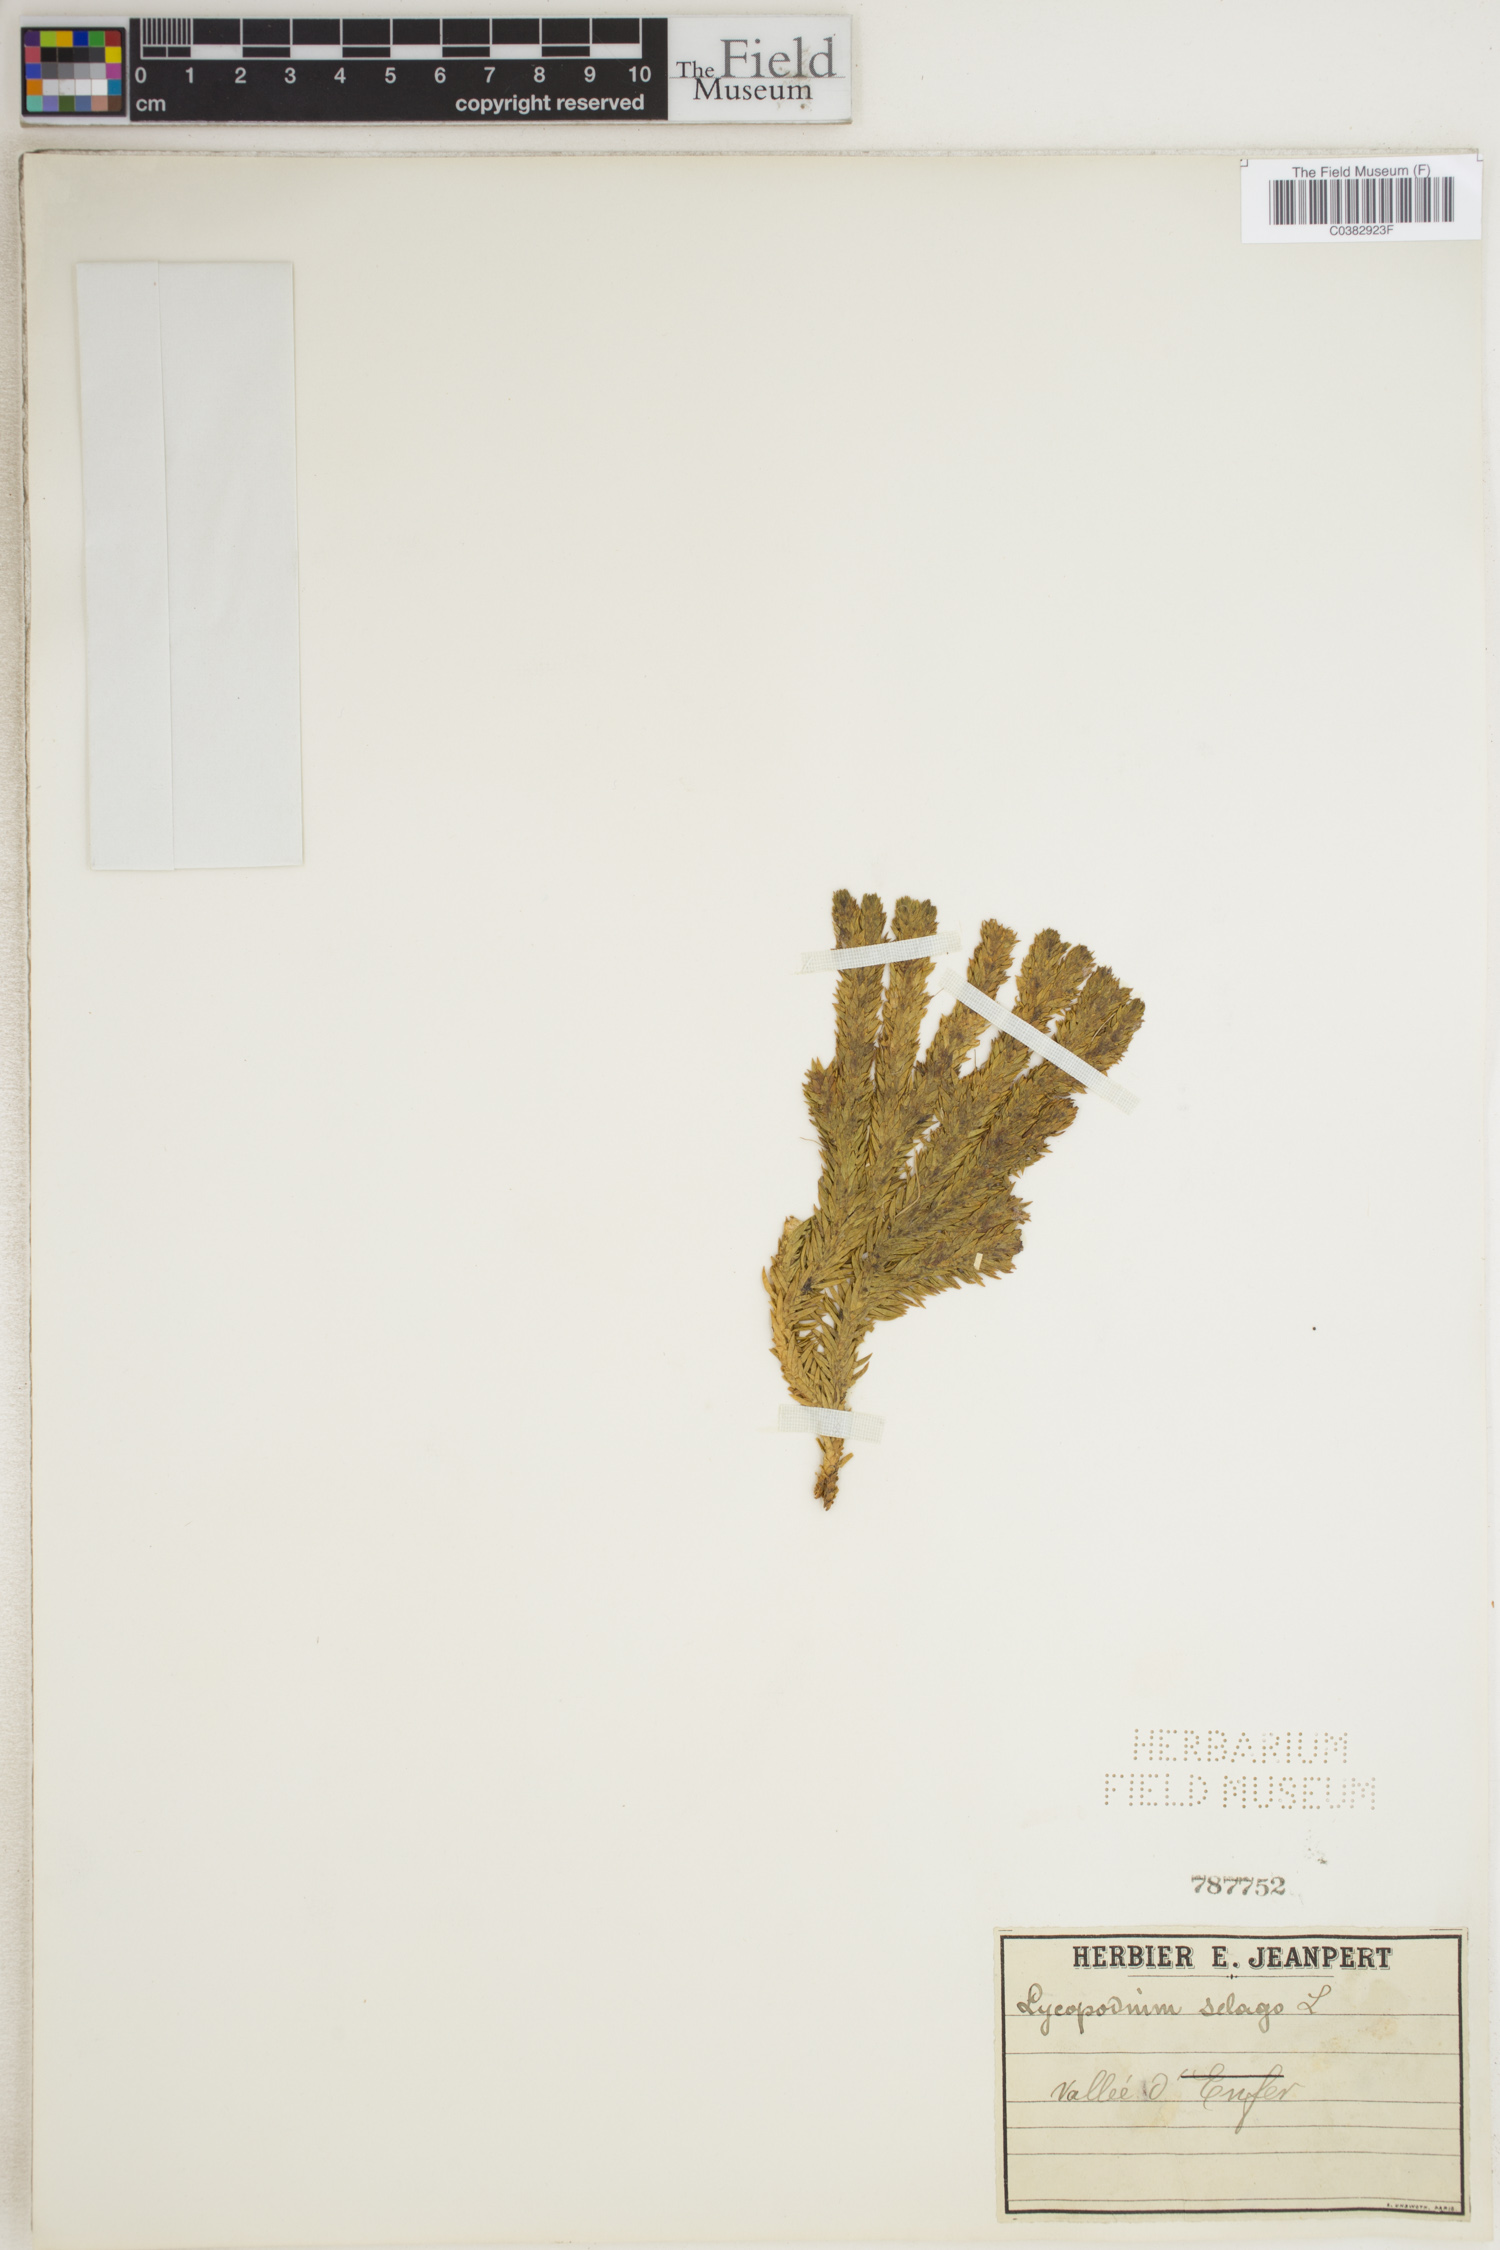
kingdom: Plantae
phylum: Tracheophyta
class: Lycopodiopsida
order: Lycopodiales
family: Lycopodiaceae
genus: Huperzia
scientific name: Huperzia selago
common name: Northern firmoss
